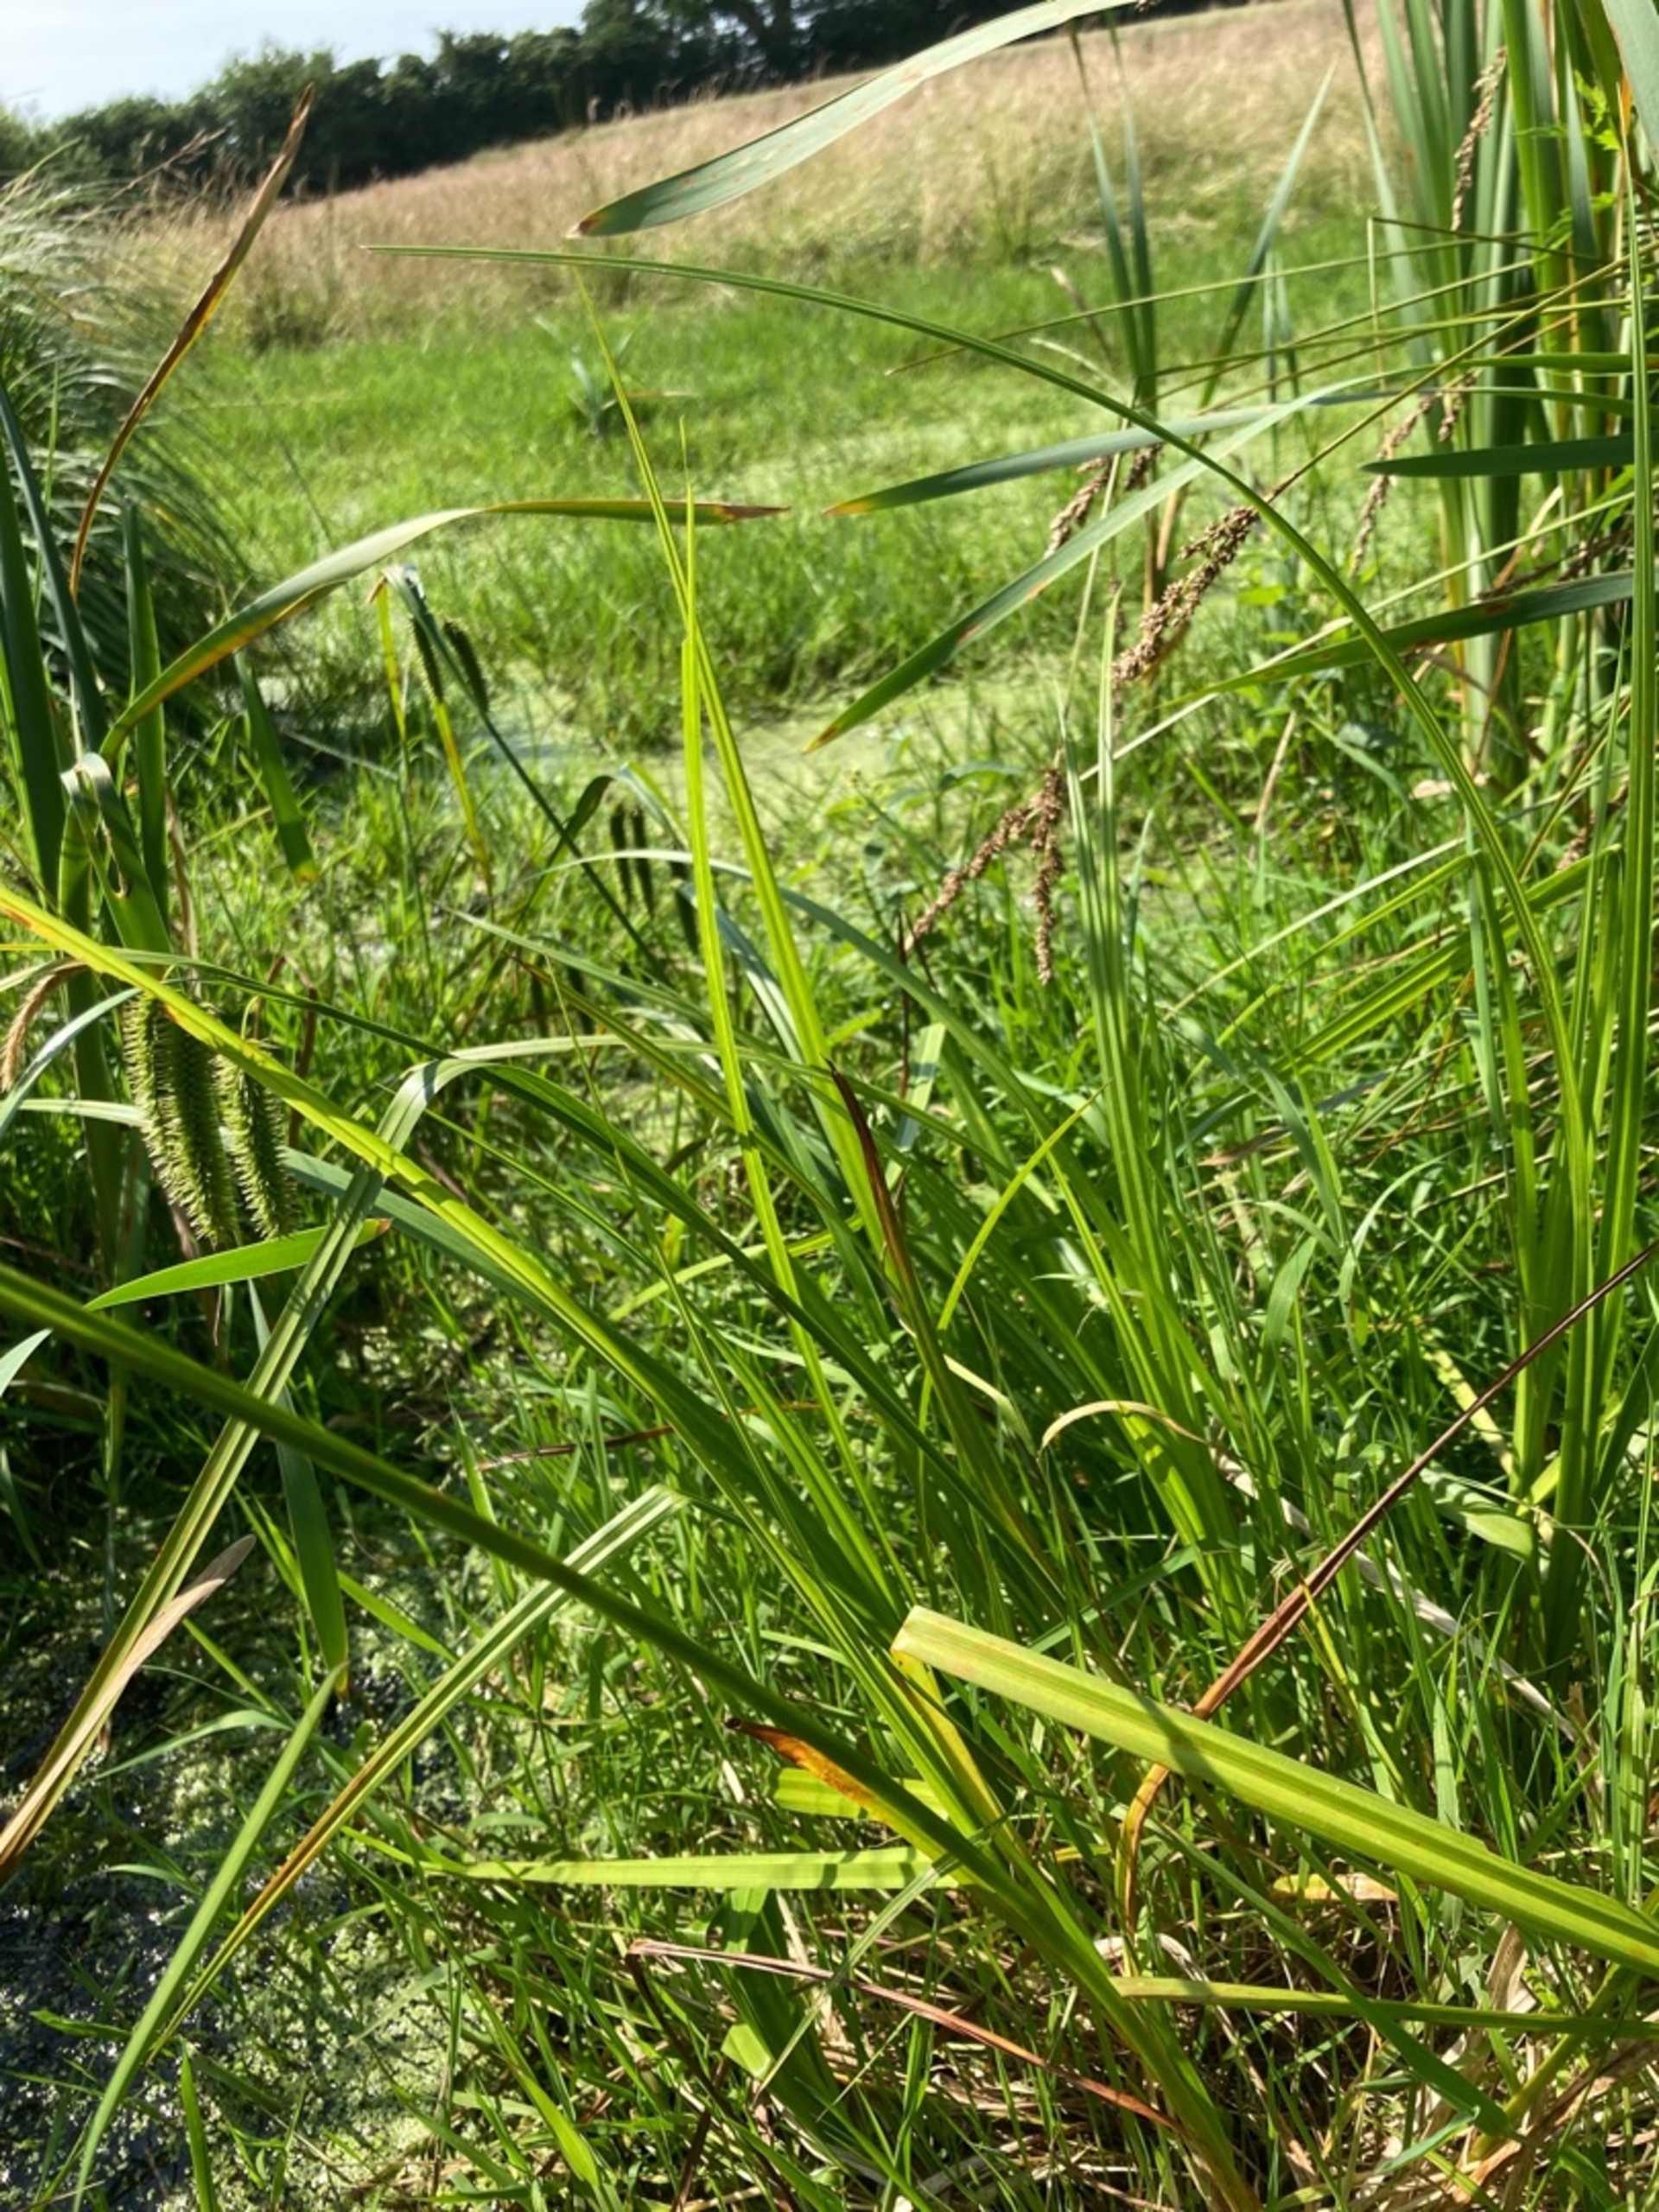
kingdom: Plantae
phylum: Tracheophyta
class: Liliopsida
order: Poales
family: Cyperaceae
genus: Carex
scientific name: Carex pseudocyperus
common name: Knippe-star
